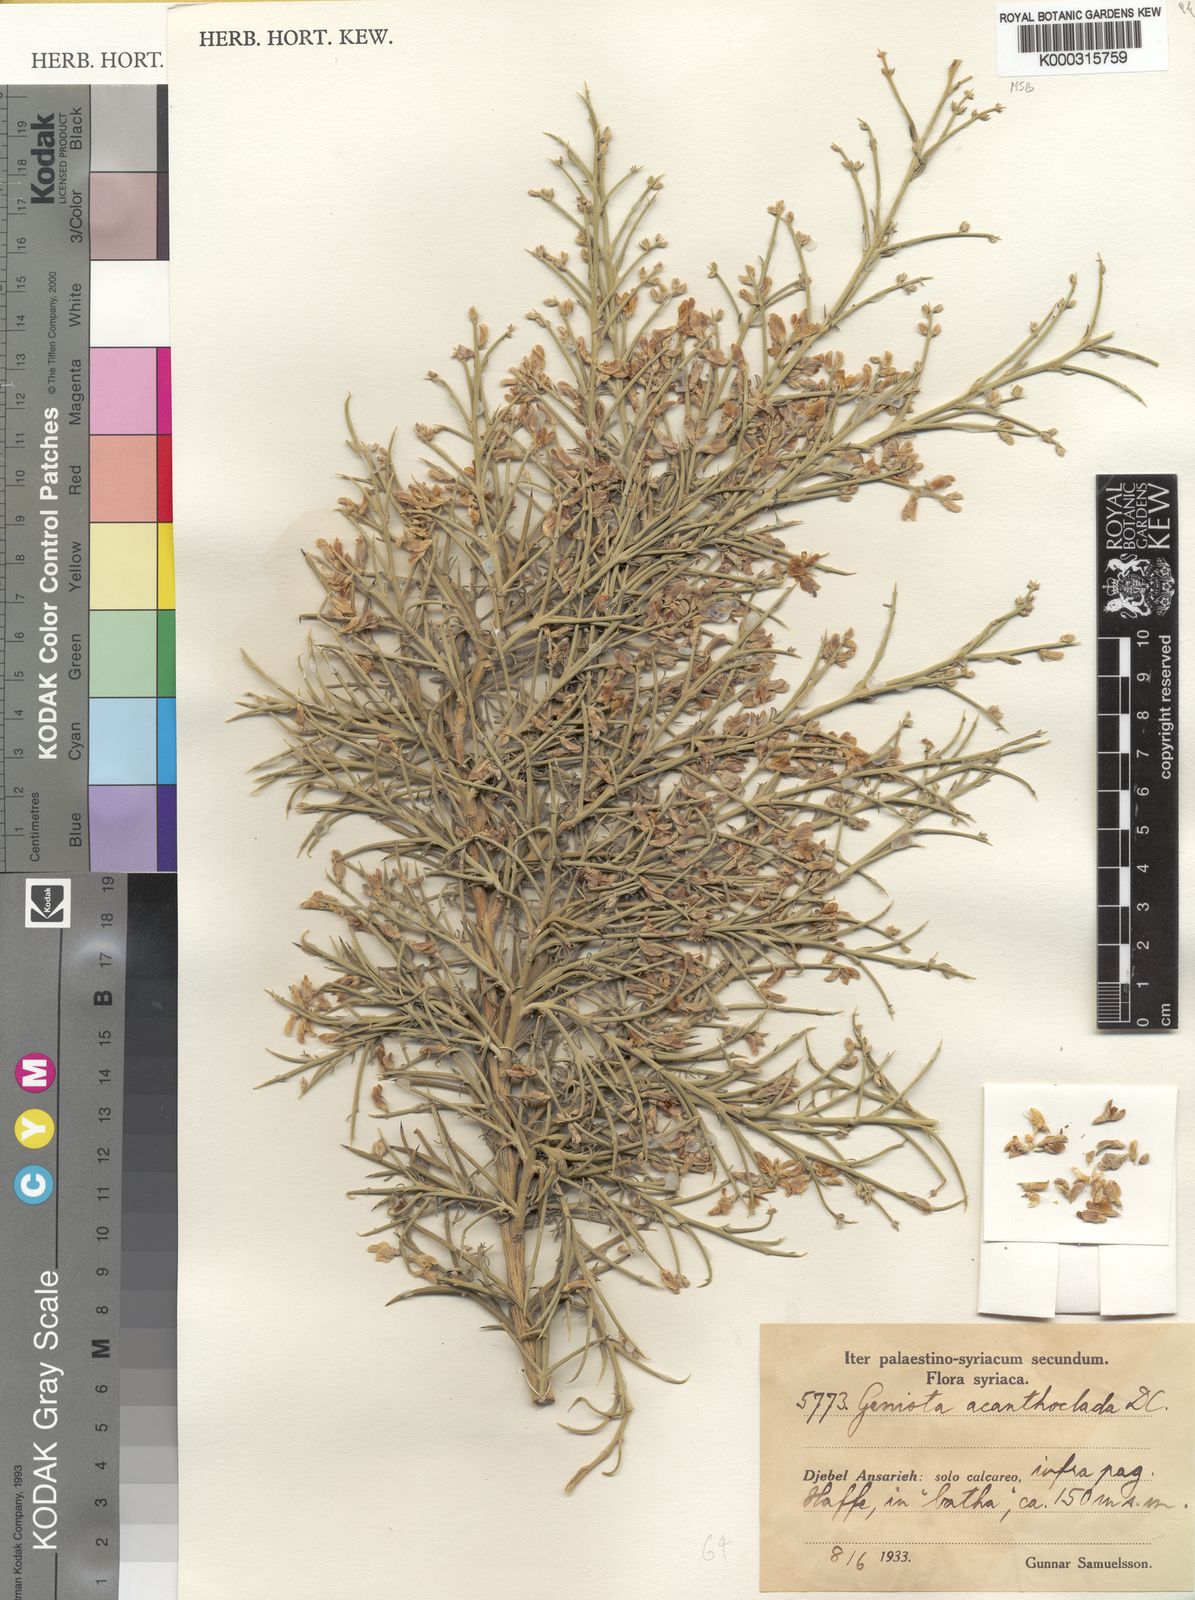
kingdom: Plantae
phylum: Tracheophyta
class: Magnoliopsida
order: Fabales
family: Fabaceae
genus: Genista
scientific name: Genista acanthoclada
